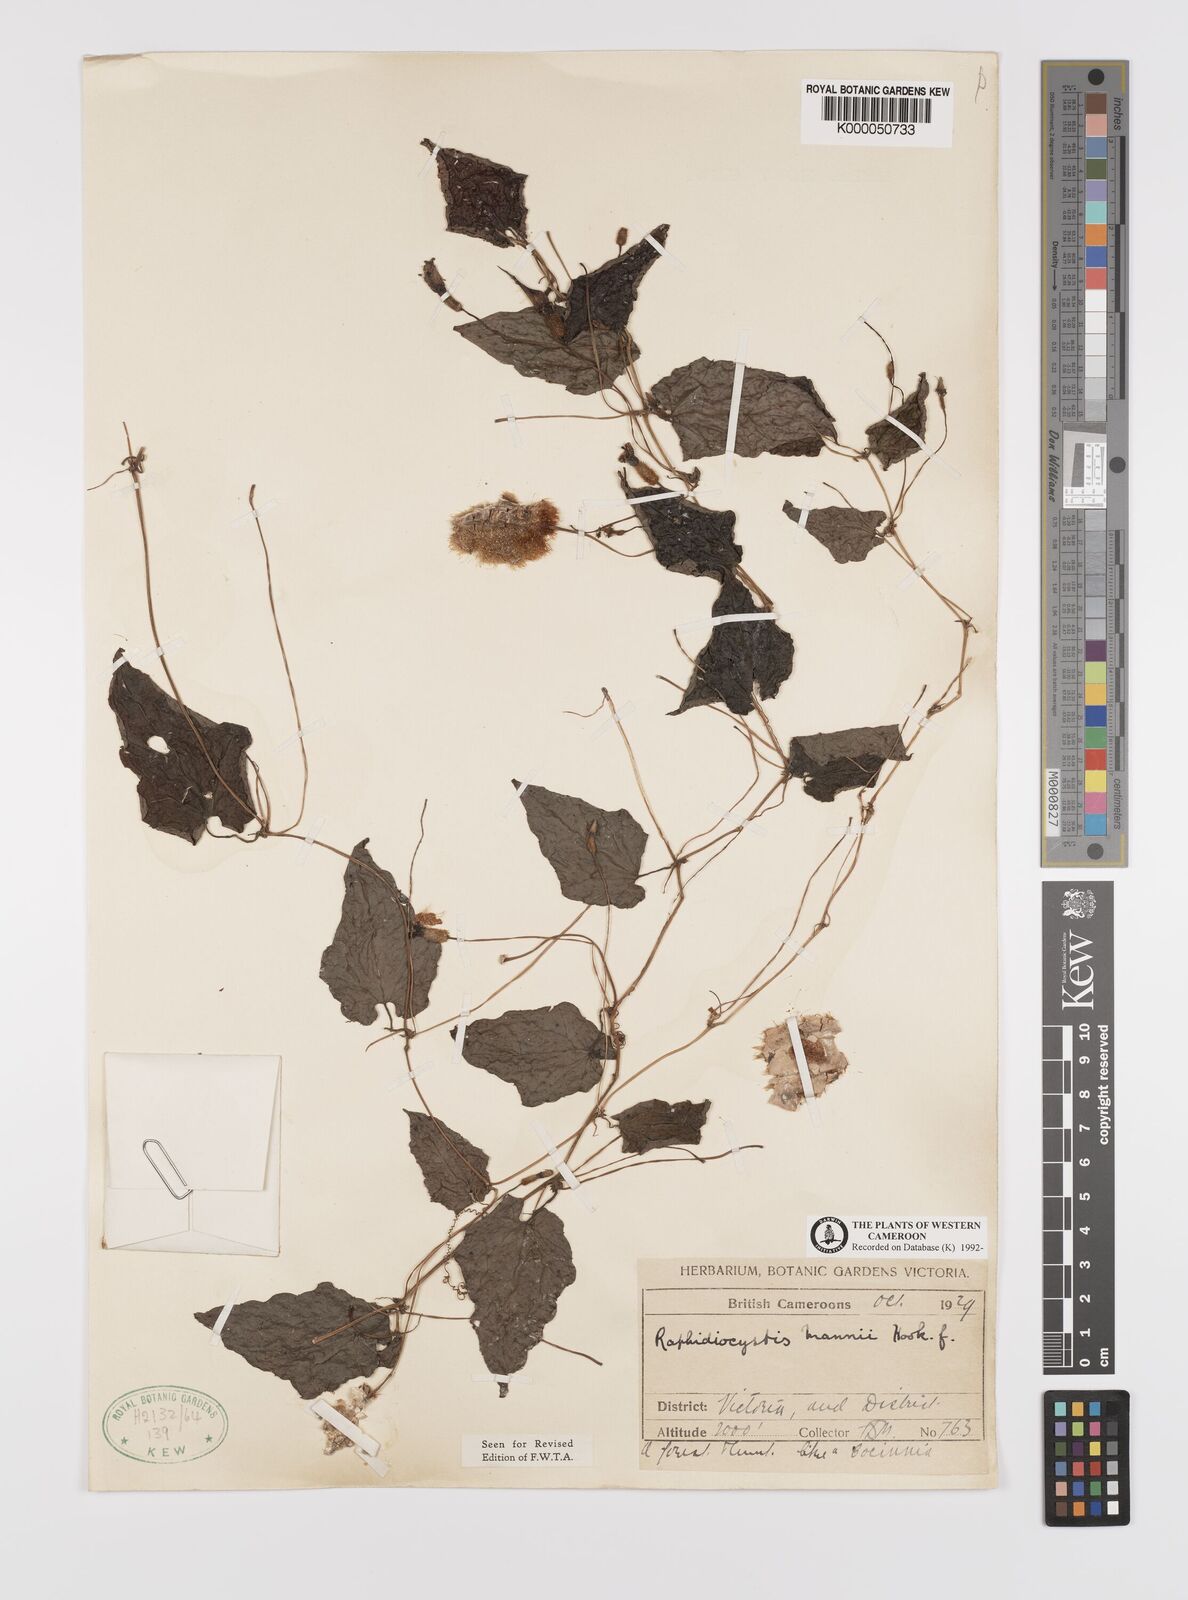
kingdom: Plantae
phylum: Tracheophyta
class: Magnoliopsida
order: Cucurbitales
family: Cucurbitaceae
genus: Raphidiocystis
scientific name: Raphidiocystis mannii
